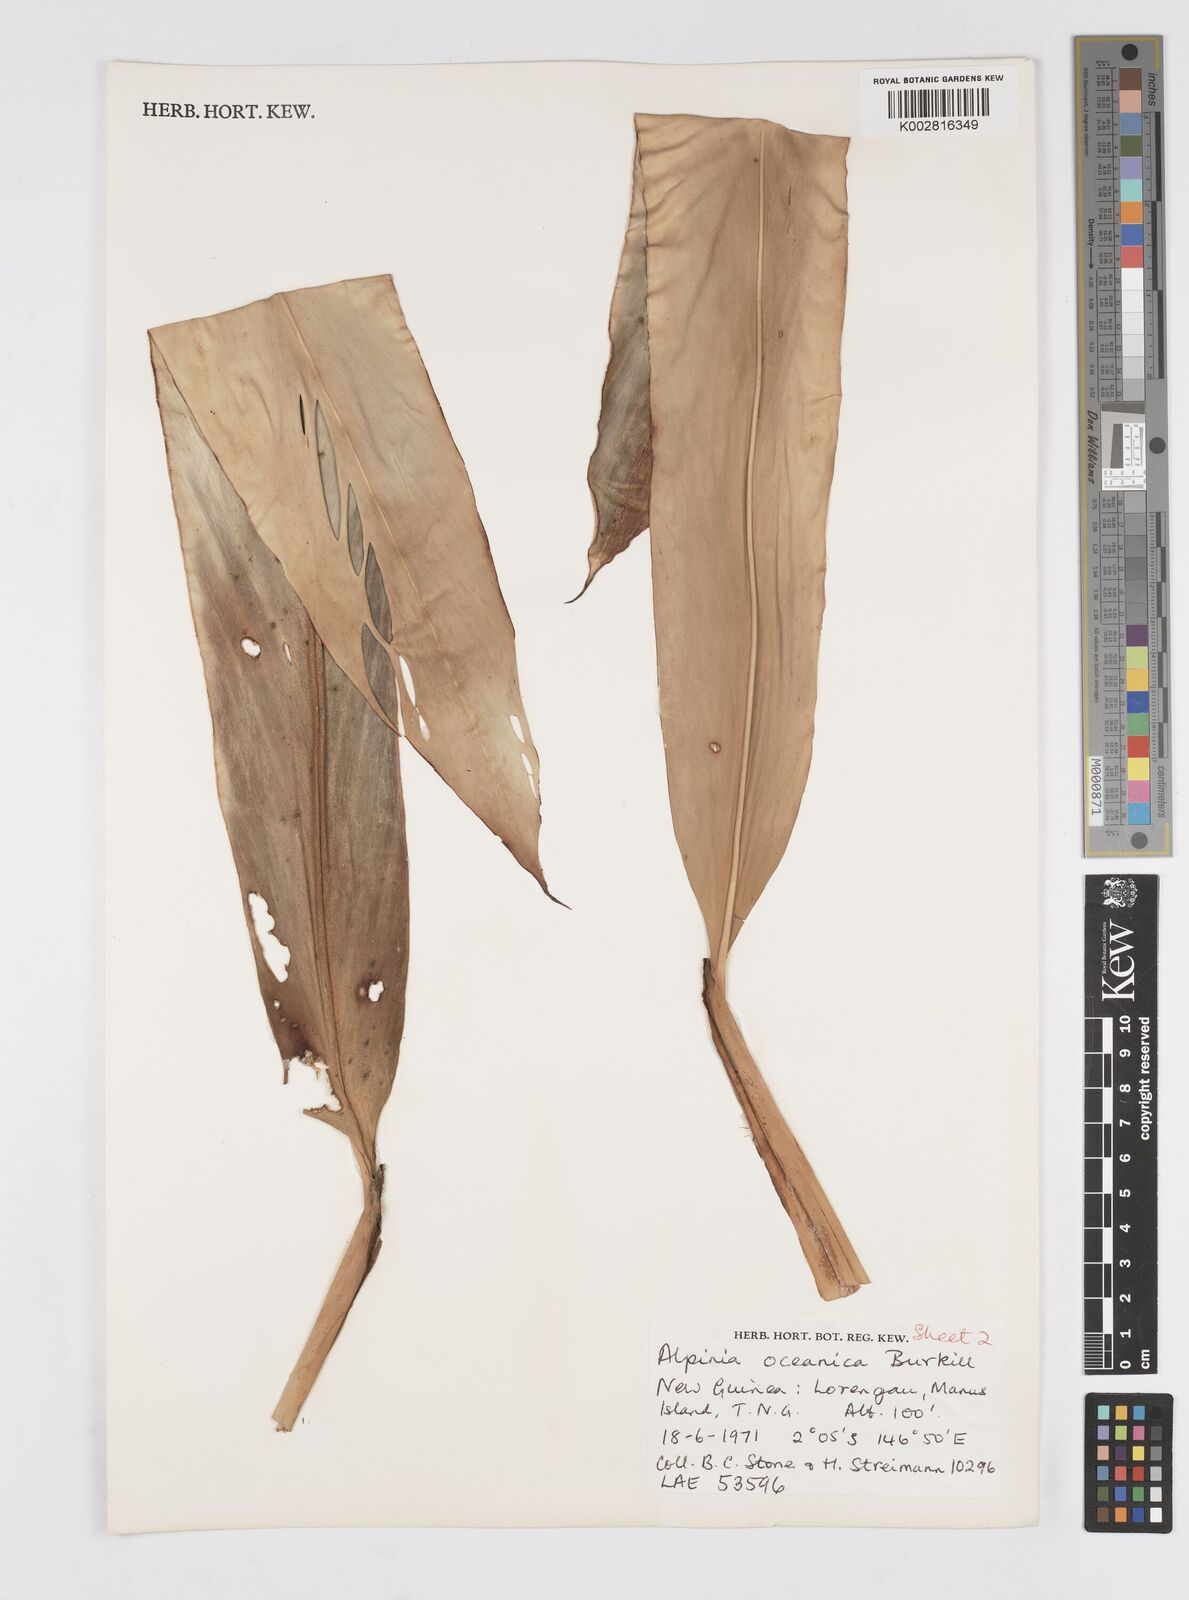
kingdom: Plantae
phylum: Tracheophyta
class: Liliopsida
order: Zingiberales
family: Zingiberaceae
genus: Alpinia
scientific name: Alpinia oceanica
